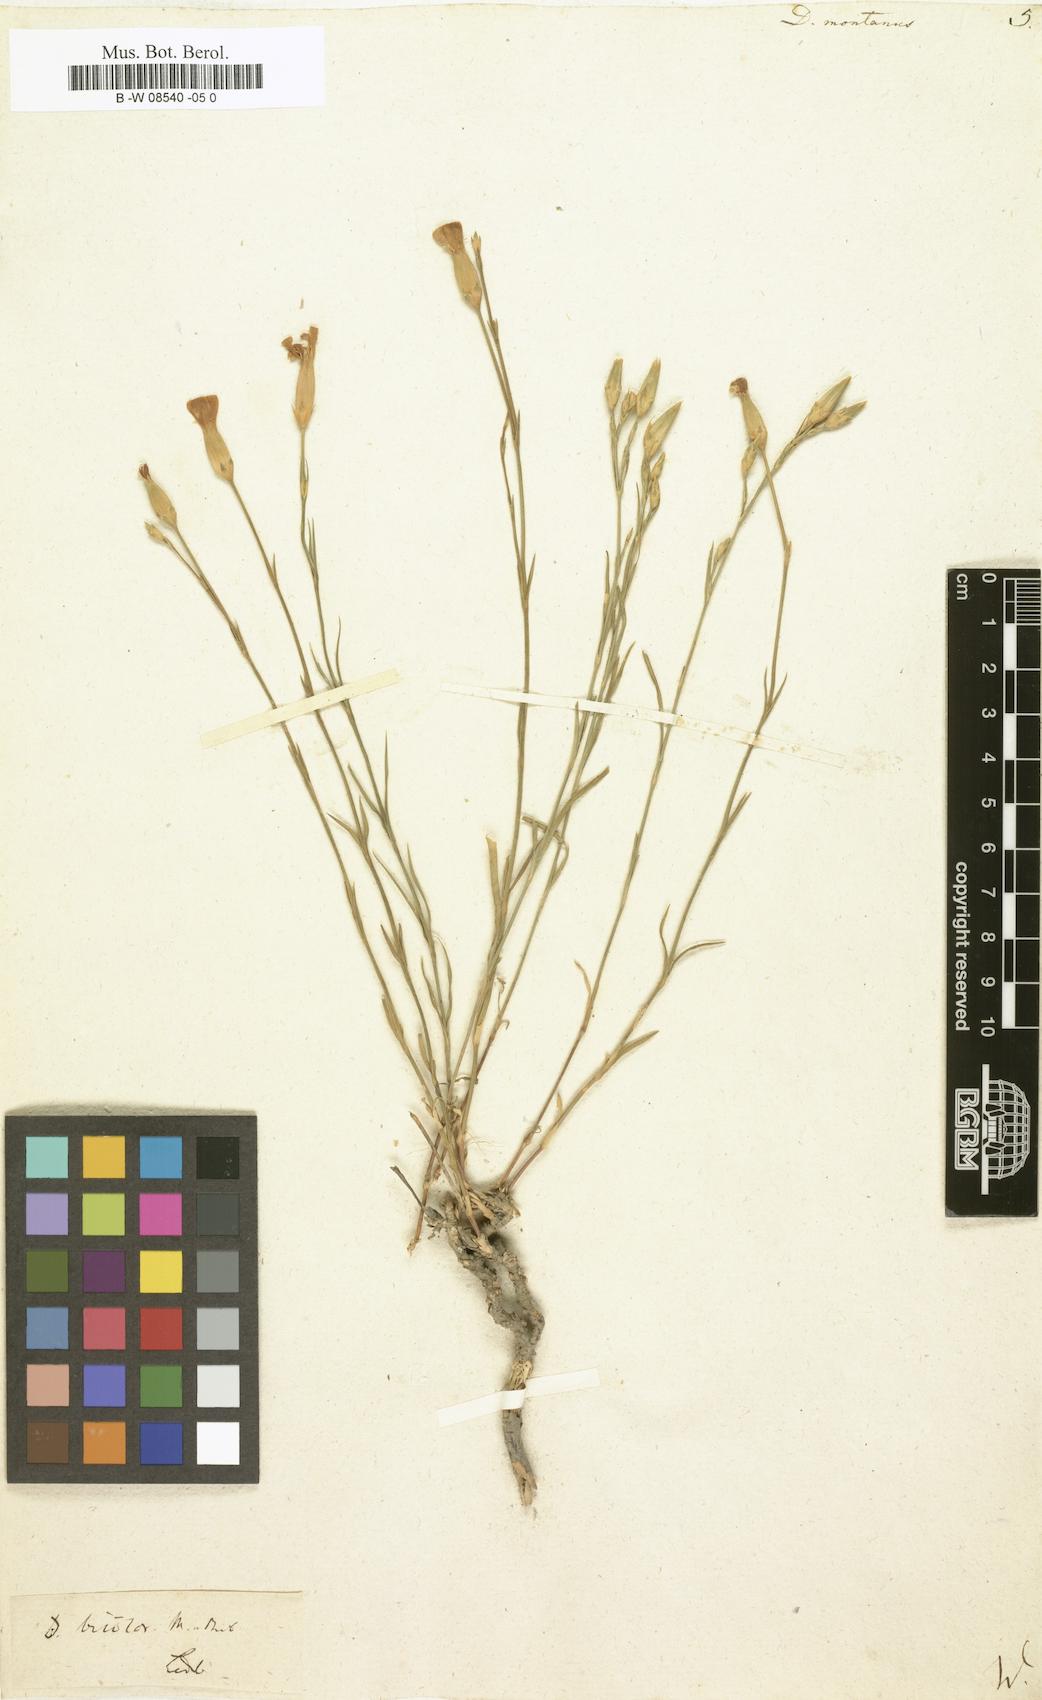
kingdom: Plantae
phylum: Tracheophyta
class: Magnoliopsida
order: Caryophyllales
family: Caryophyllaceae
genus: Dianthus
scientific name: Dianthus
